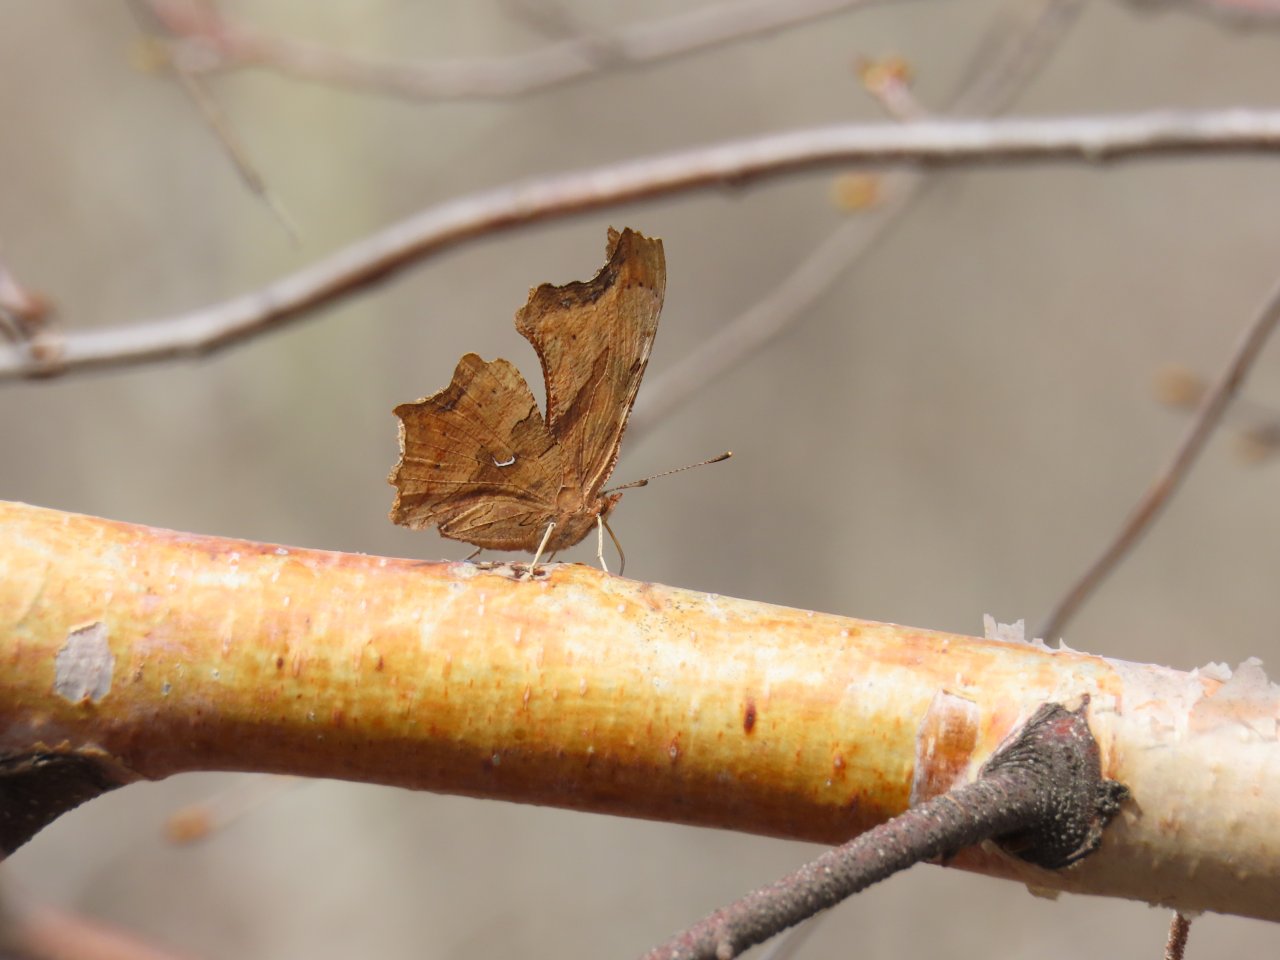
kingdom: Animalia
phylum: Arthropoda
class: Insecta
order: Lepidoptera
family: Nymphalidae
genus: Polygonia
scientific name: Polygonia satyrus
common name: Satyr Comma
